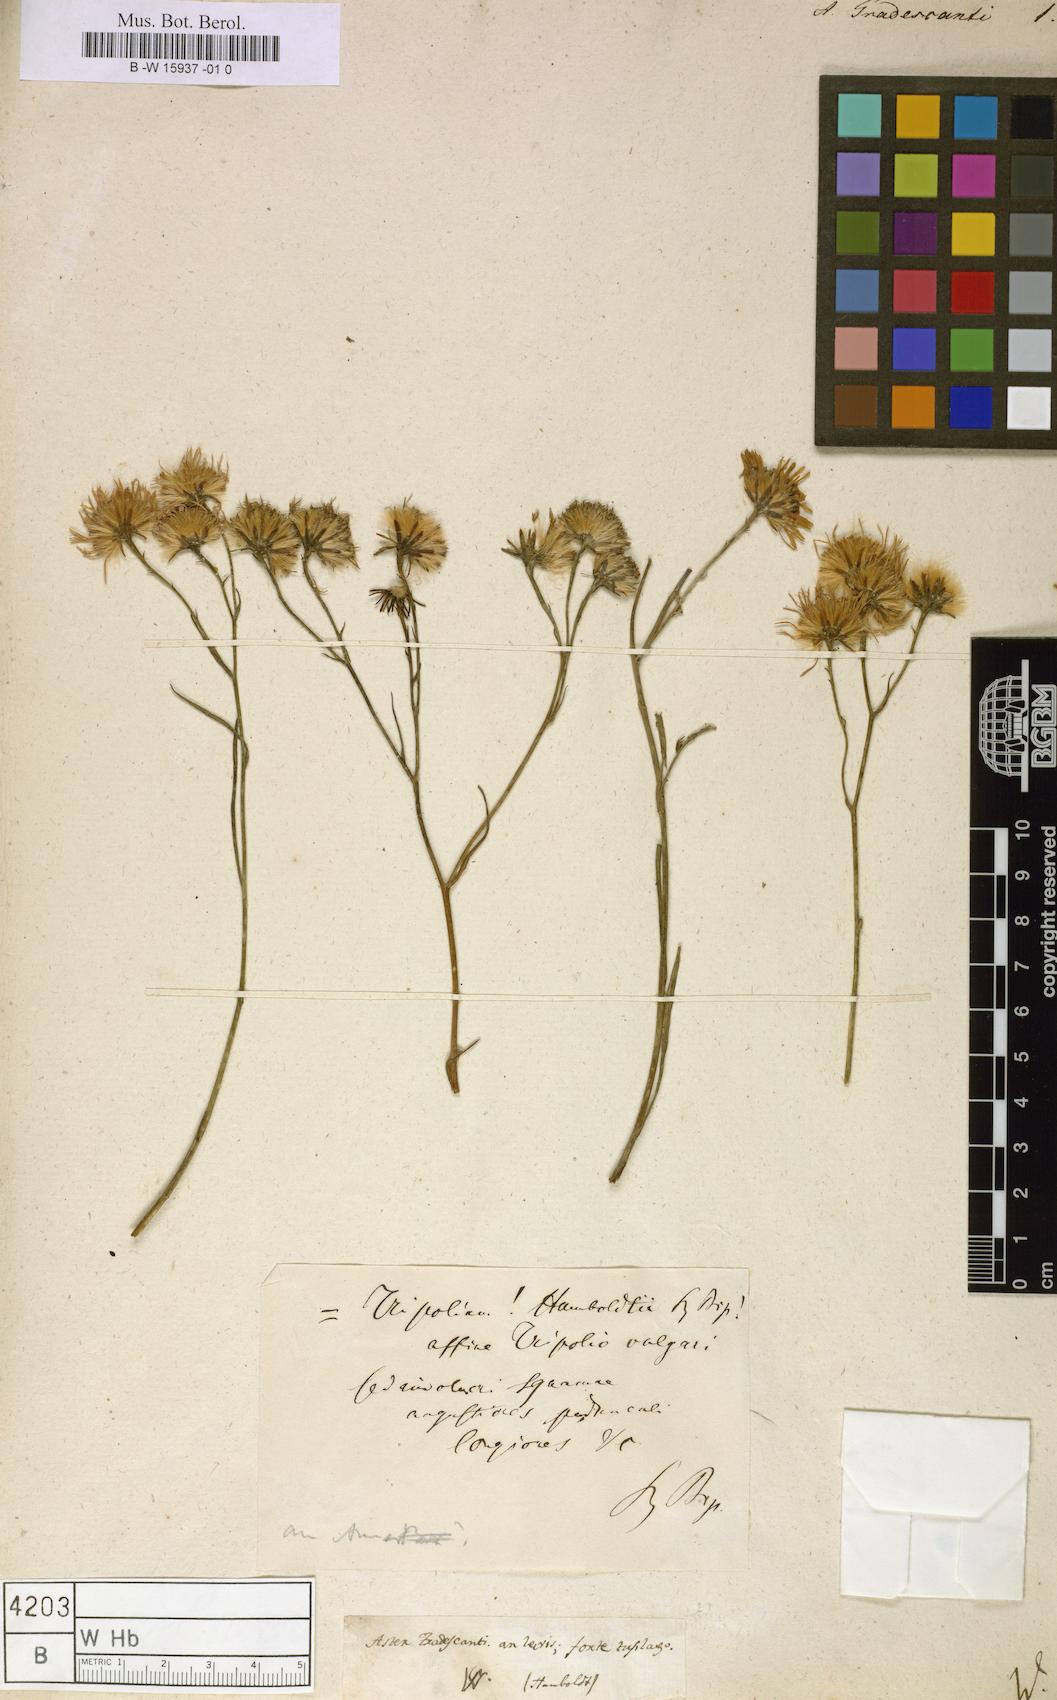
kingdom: Plantae
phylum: Tracheophyta
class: Magnoliopsida
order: Asterales
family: Asteraceae
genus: Aster
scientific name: Aster tradescanti
